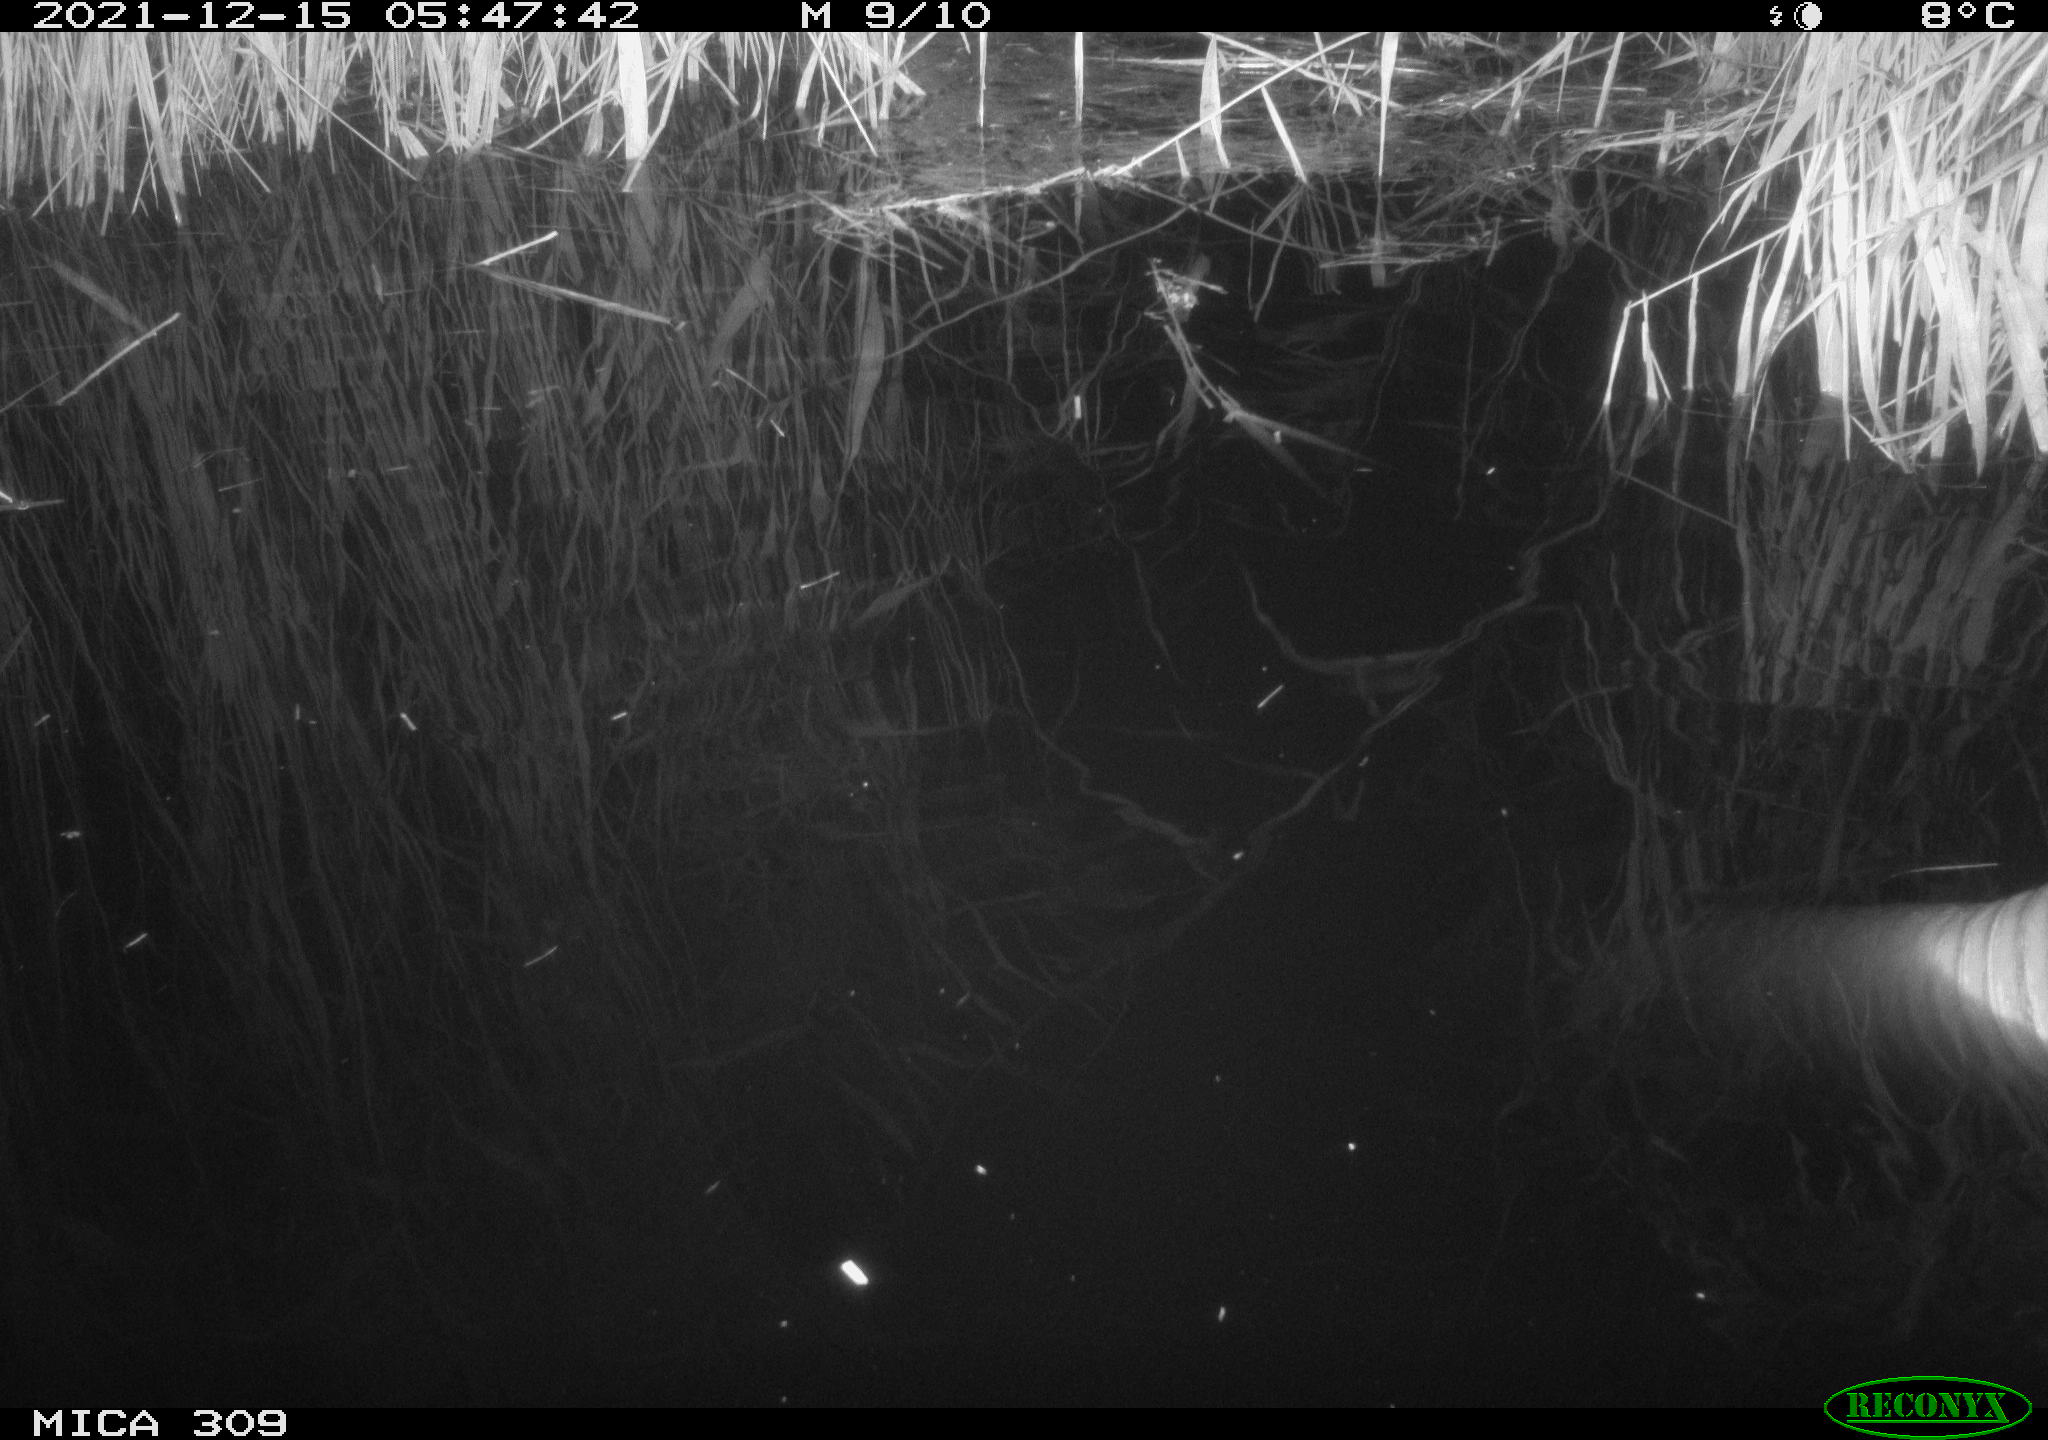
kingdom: Animalia
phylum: Chordata
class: Mammalia
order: Rodentia
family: Muridae
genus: Rattus
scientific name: Rattus norvegicus
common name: Brown rat
